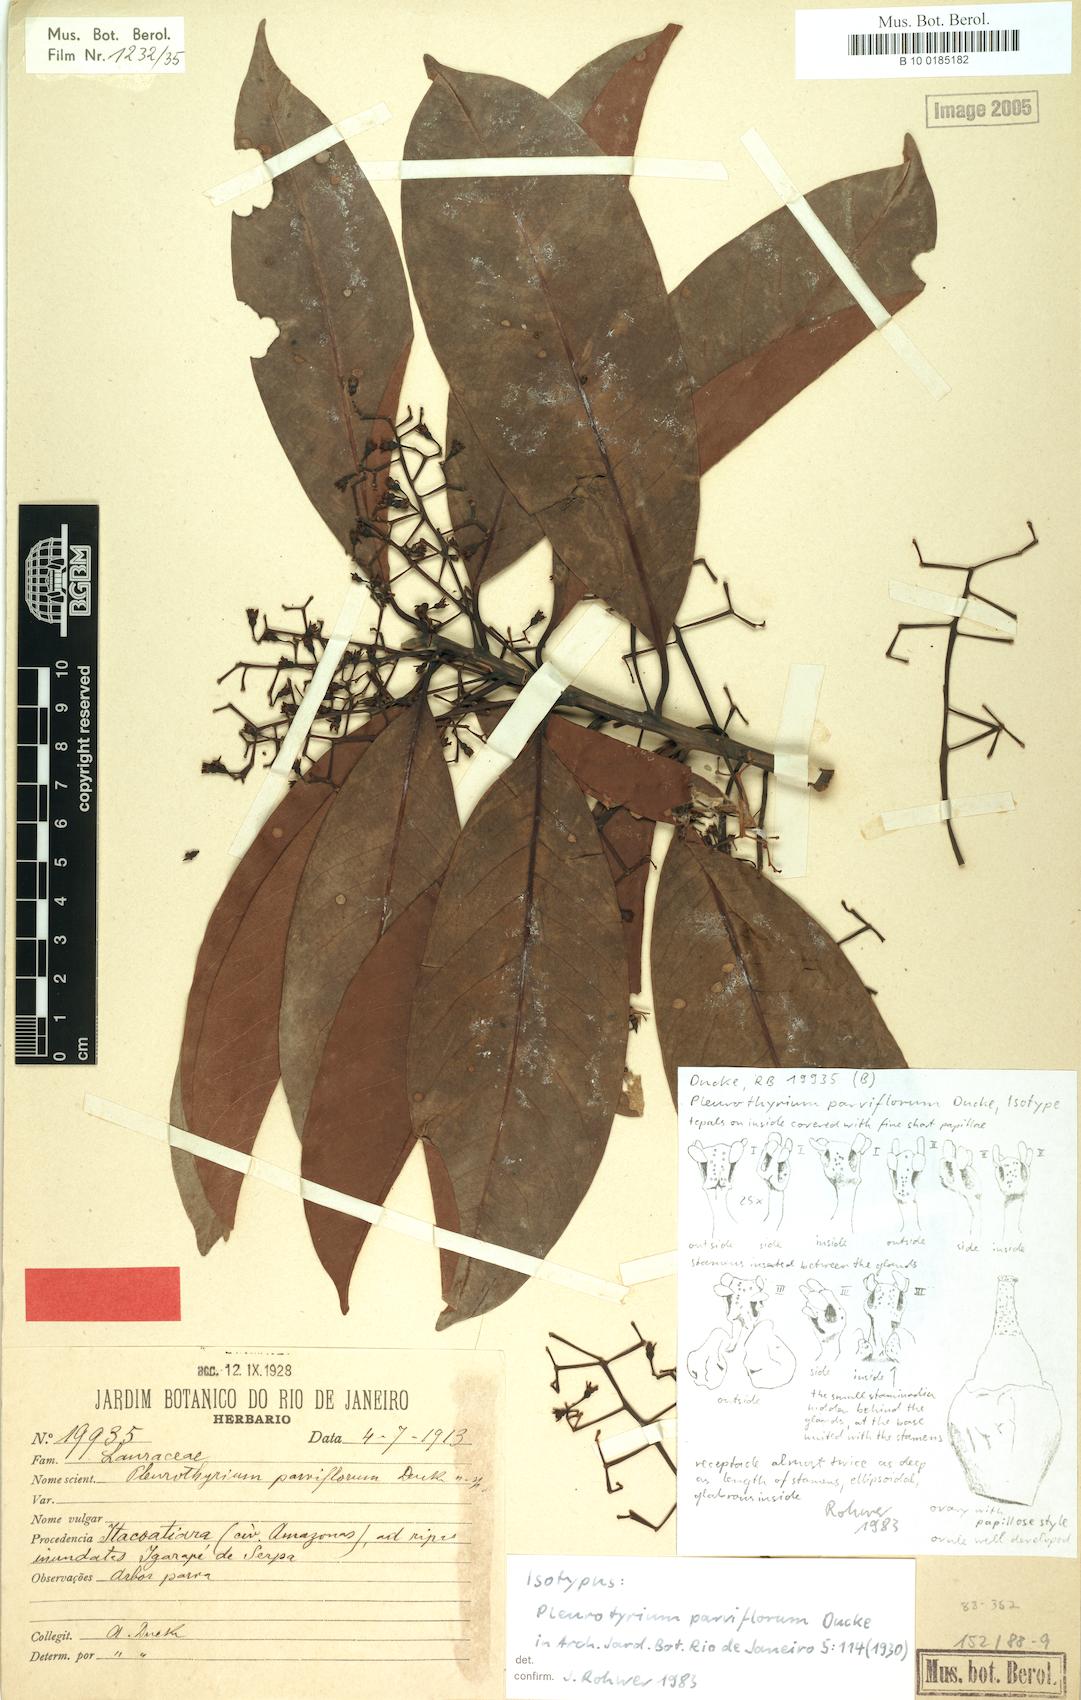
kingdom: Plantae
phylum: Tracheophyta
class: Magnoliopsida
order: Laurales
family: Lauraceae
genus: Pleurothyrium
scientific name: Pleurothyrium parviflorum
